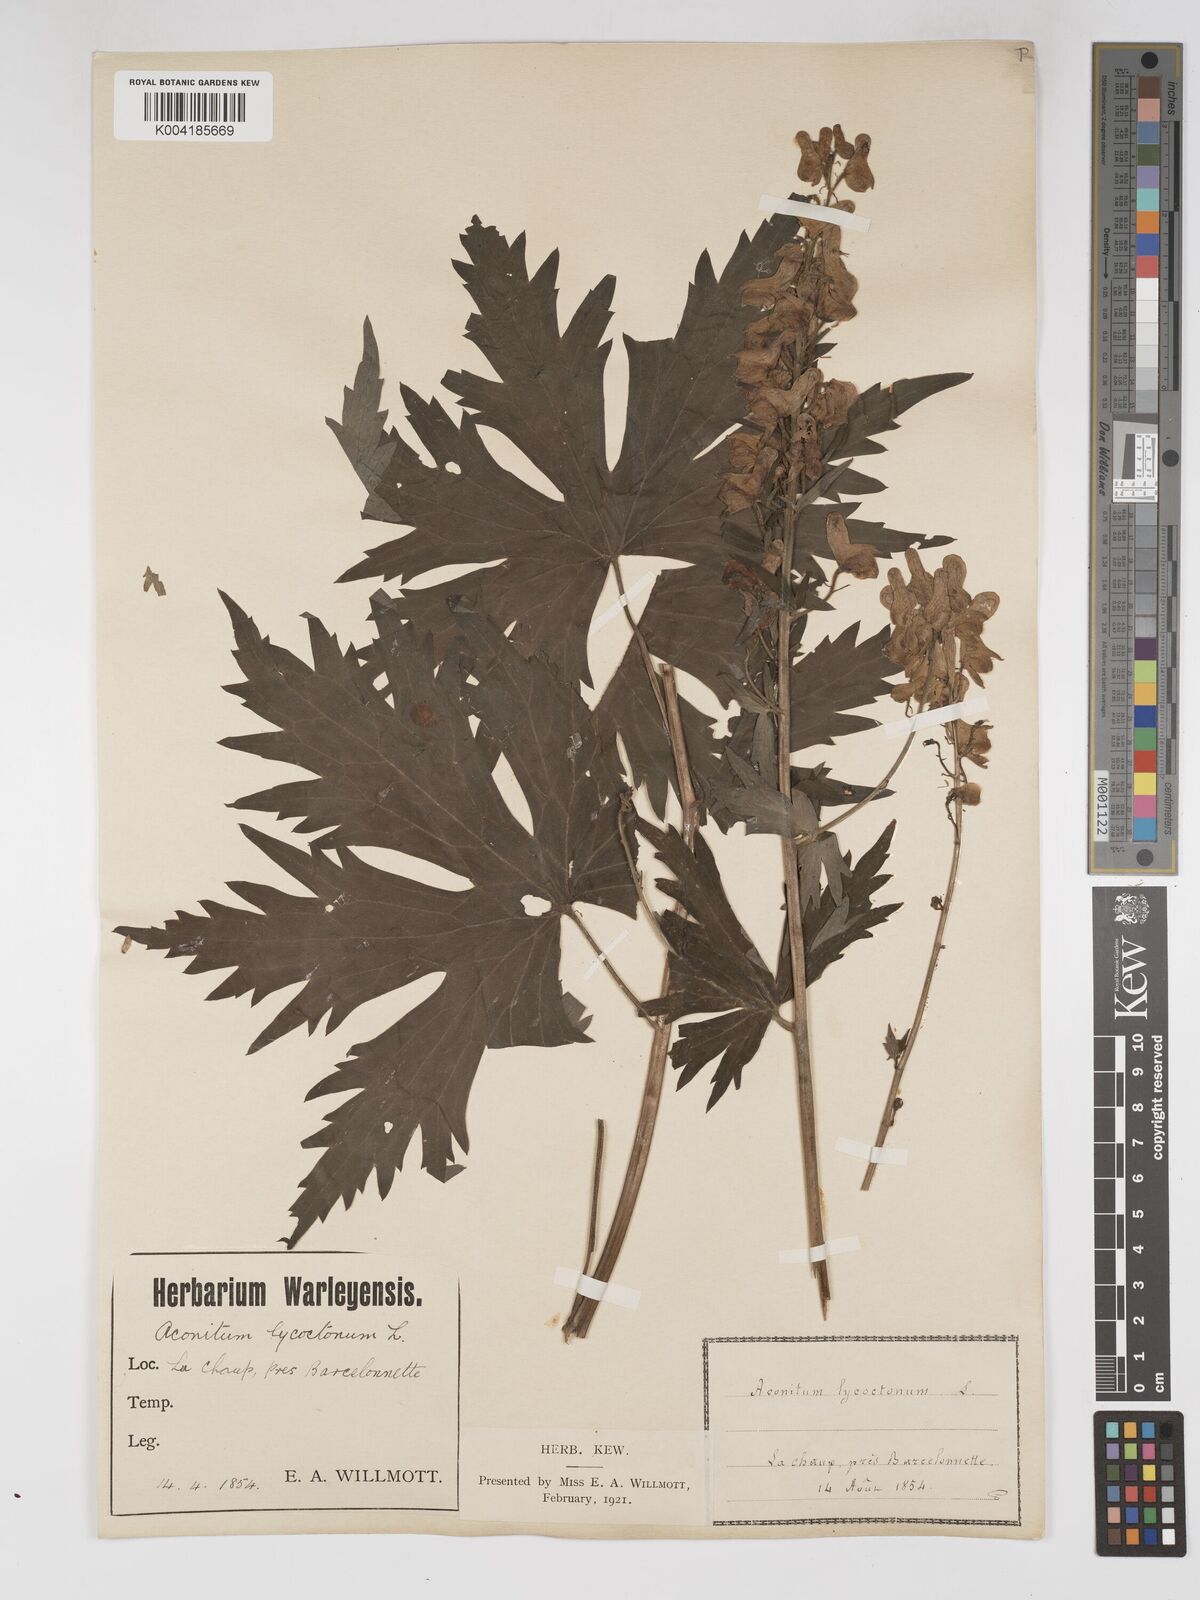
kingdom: Plantae
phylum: Tracheophyta
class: Magnoliopsida
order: Ranunculales
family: Ranunculaceae
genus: Aconitum
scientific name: Aconitum lycoctonum
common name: Wolf's-bane
